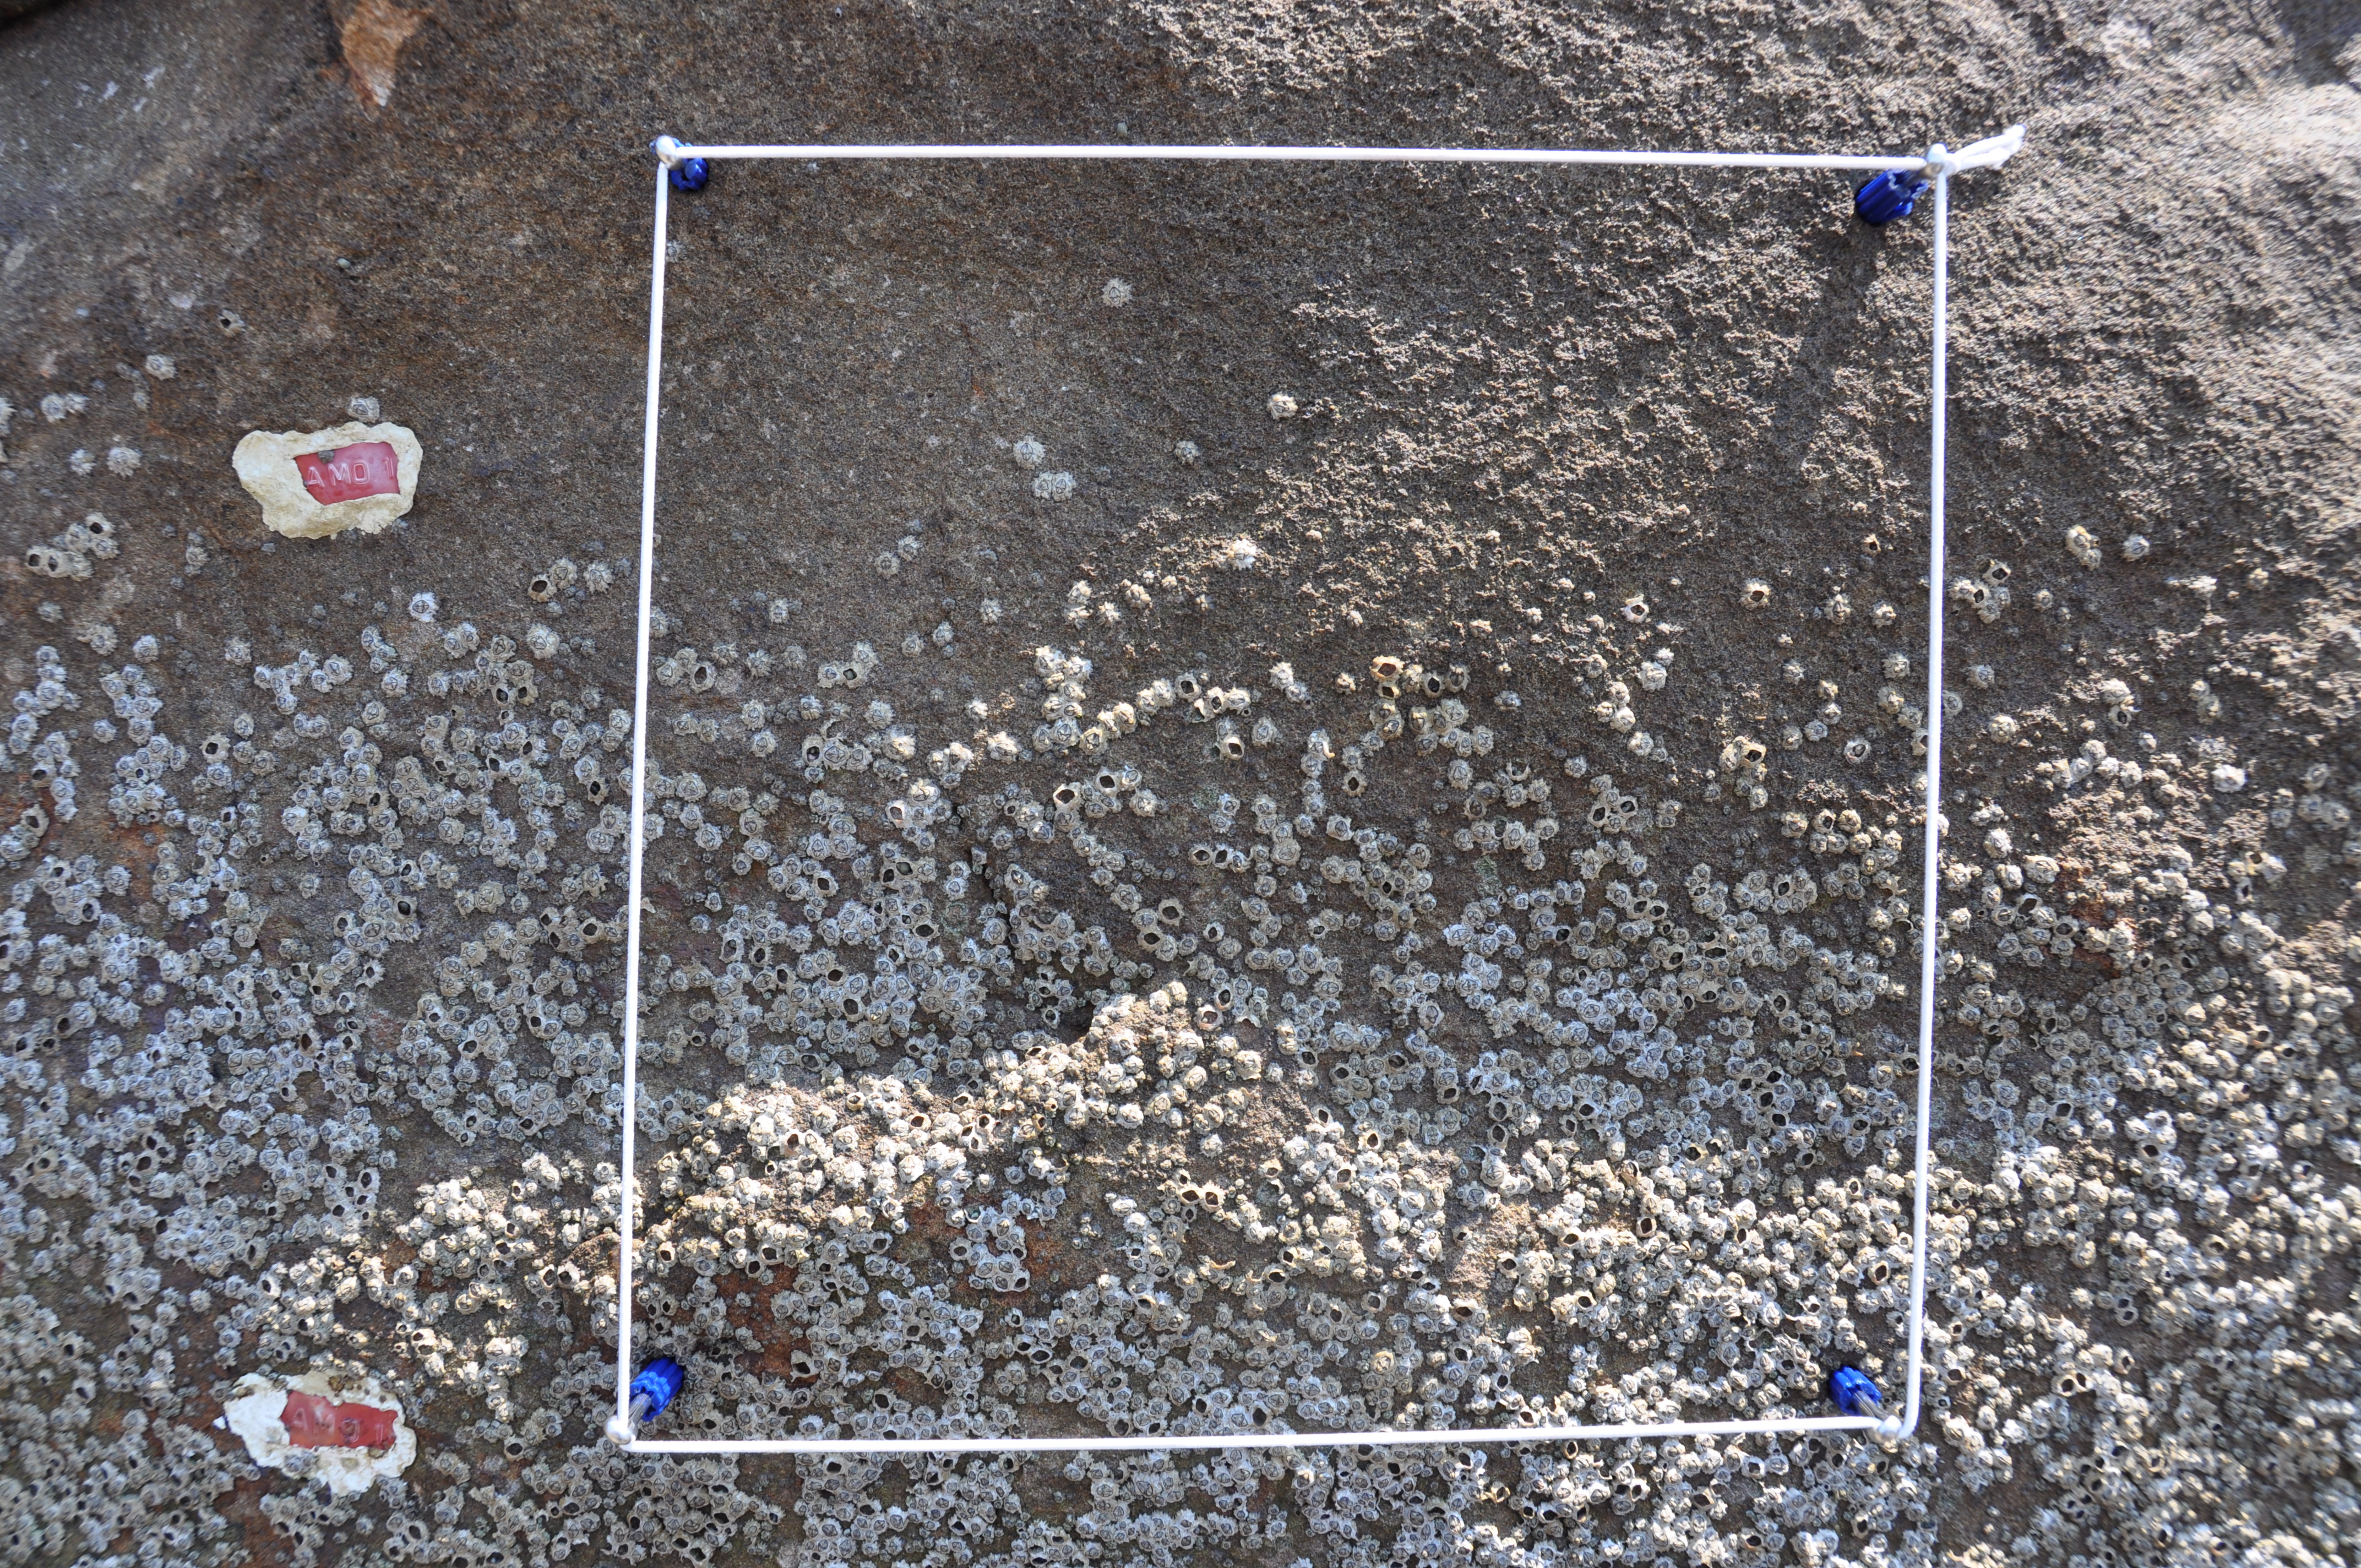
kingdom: Animalia
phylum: Arthropoda
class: Maxillopoda
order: Sessilia
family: Chthamalidae
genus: Chthamalus
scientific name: Chthamalus challengeri
